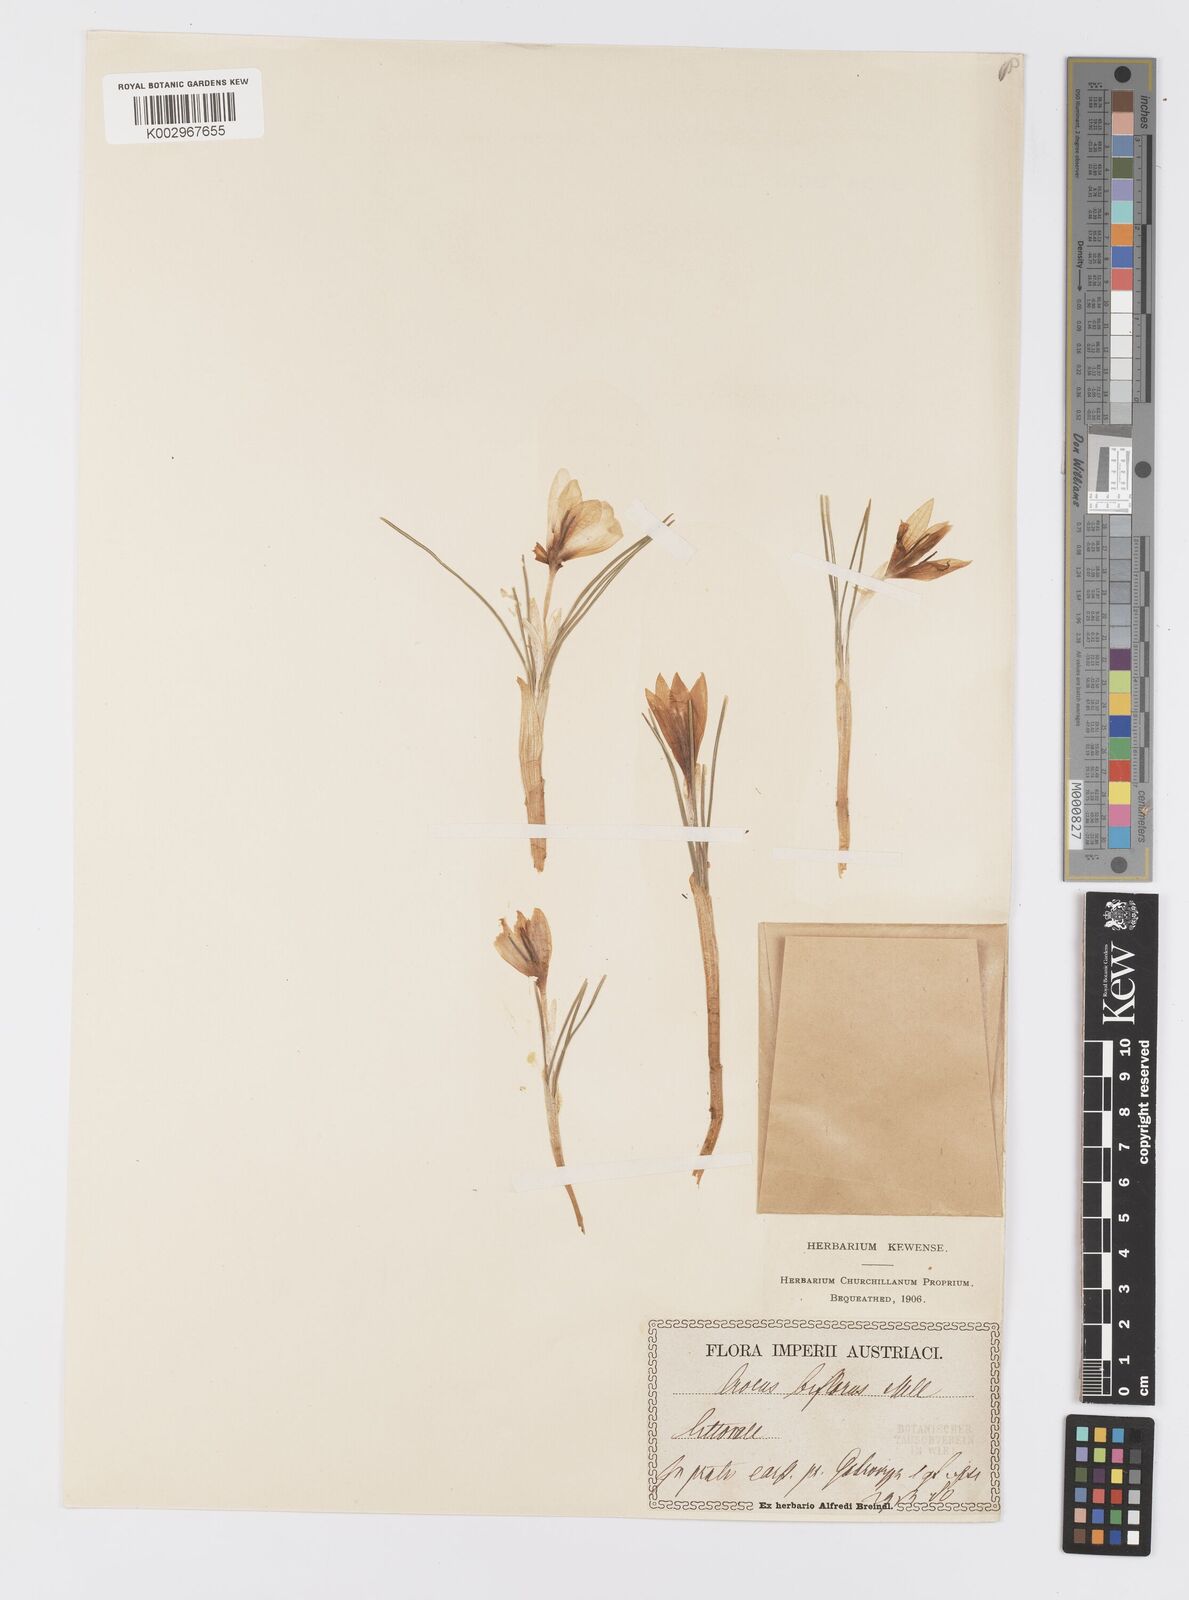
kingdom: Plantae
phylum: Tracheophyta
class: Liliopsida
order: Asparagales
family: Iridaceae
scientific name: Iridaceae
